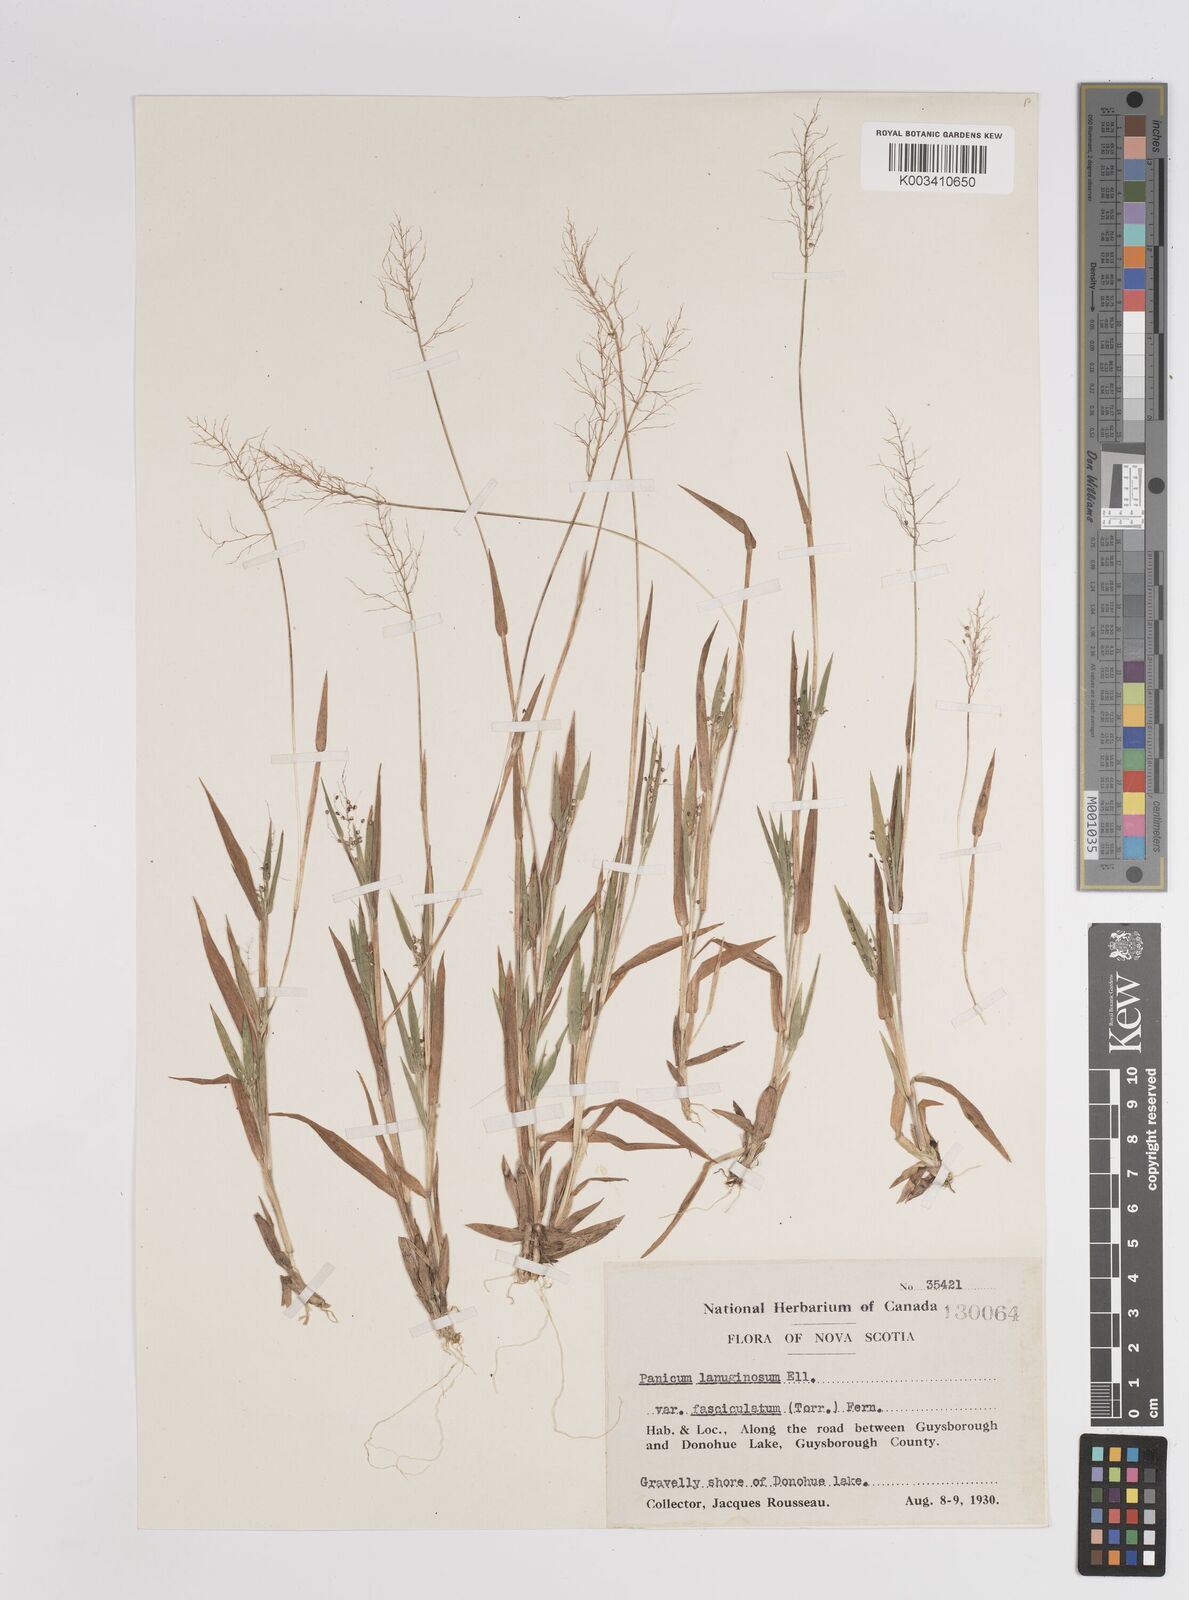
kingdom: Plantae
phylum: Tracheophyta
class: Liliopsida
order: Poales
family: Poaceae
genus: Dichanthelium
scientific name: Dichanthelium implicatum
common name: Slender-stemmed panicgrass
